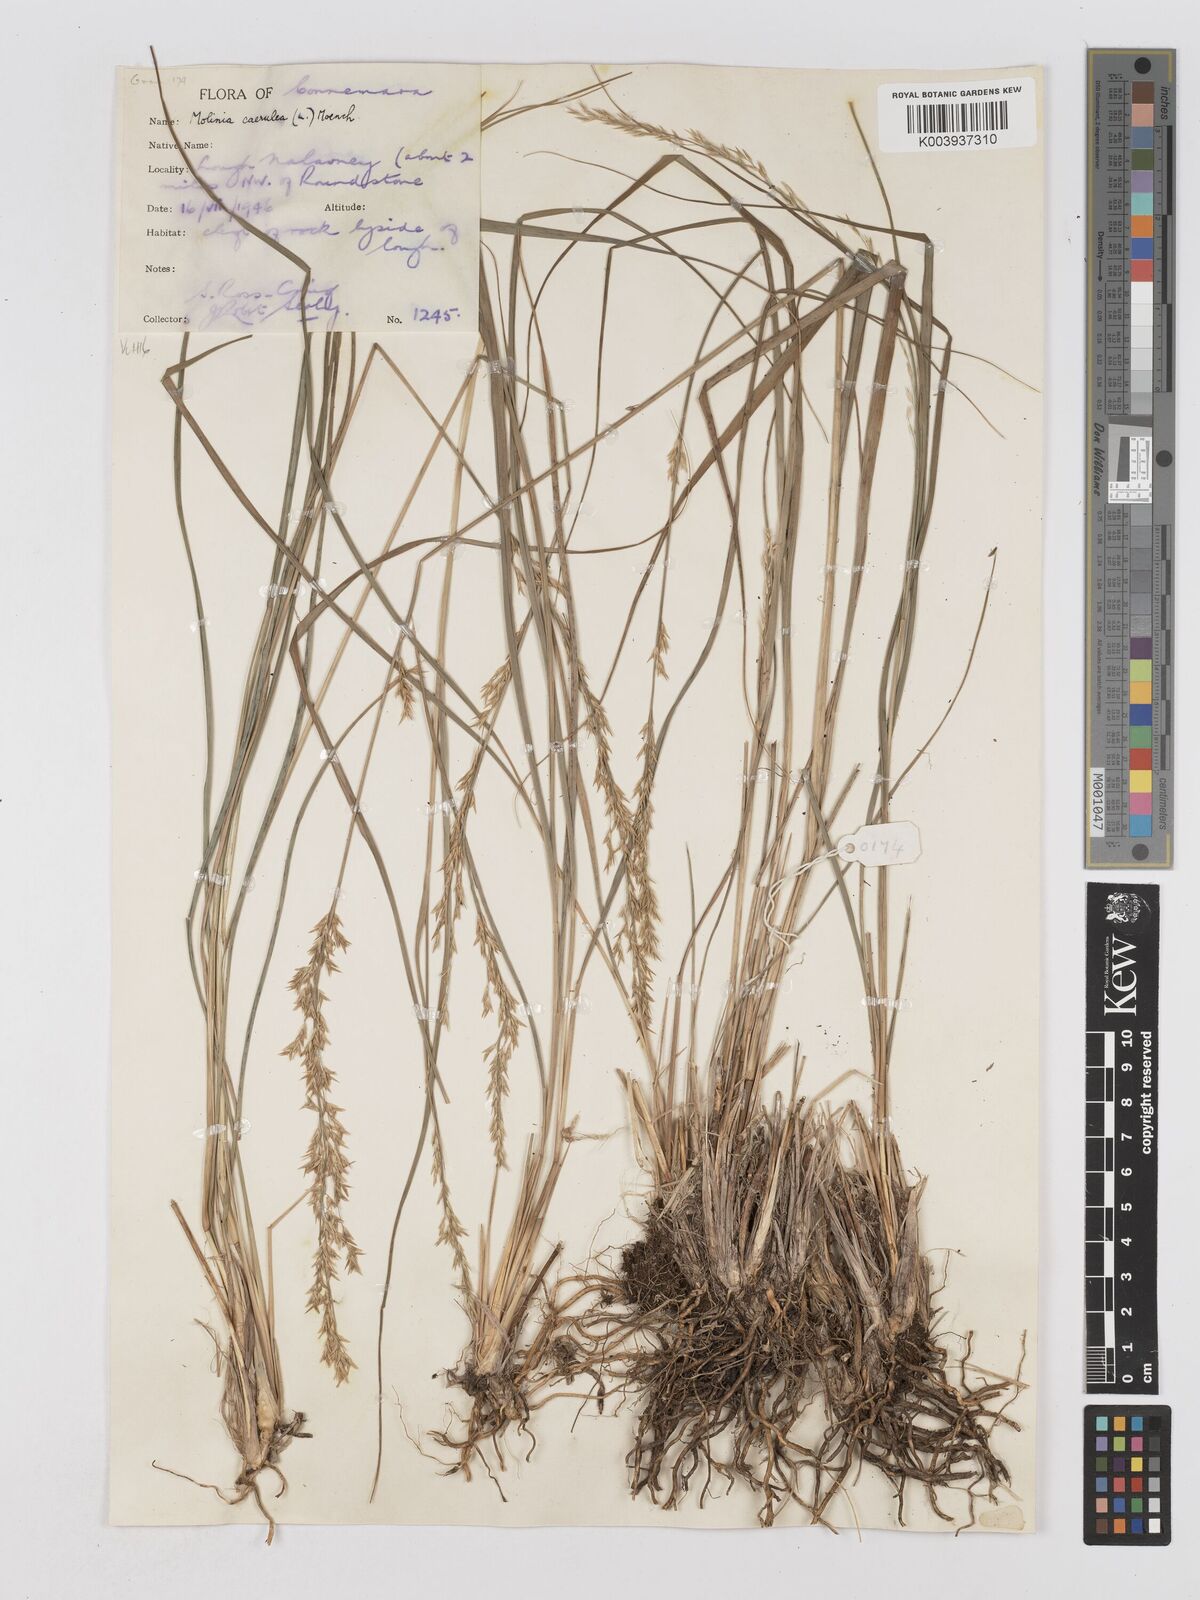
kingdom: Plantae
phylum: Tracheophyta
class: Liliopsida
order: Poales
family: Poaceae
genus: Molinia
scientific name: Molinia caerulea
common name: Purple moor-grass
